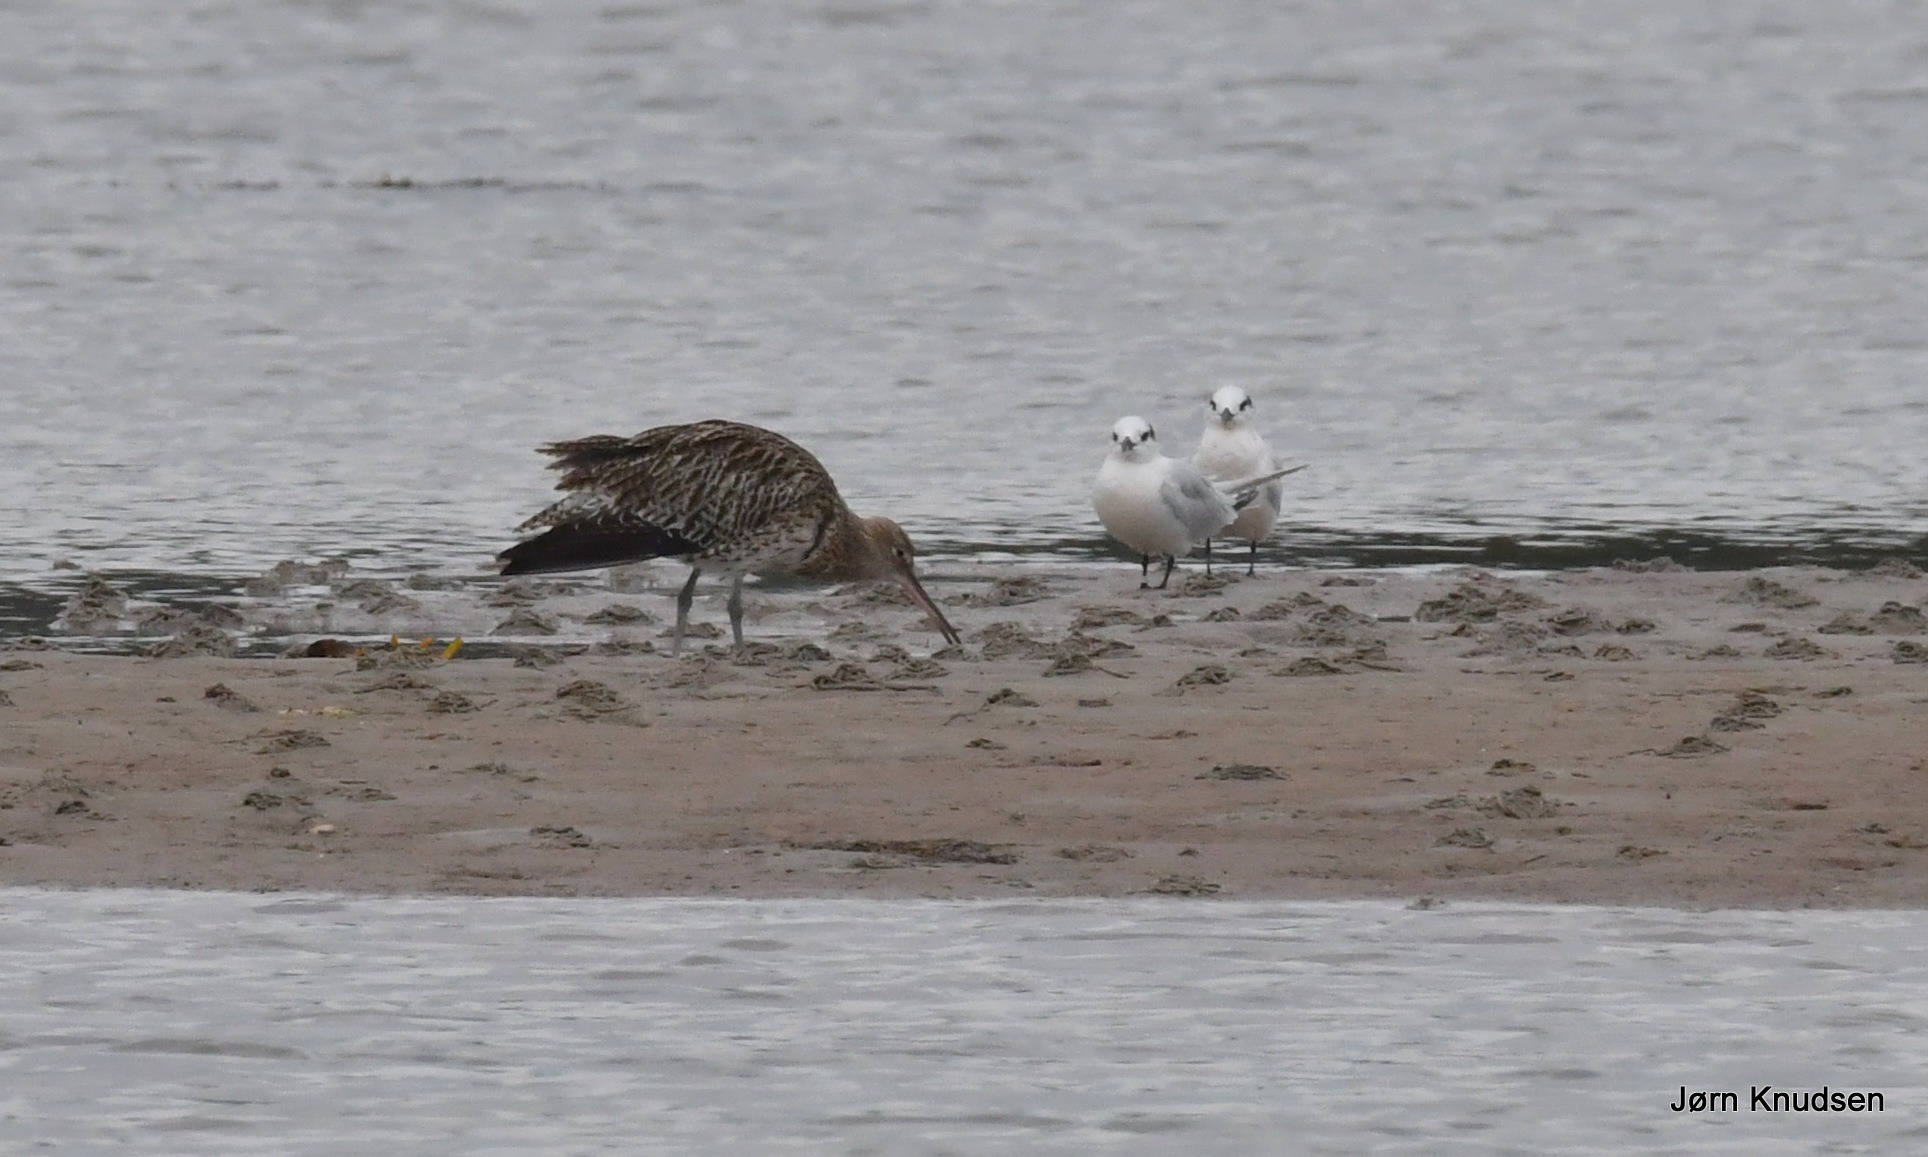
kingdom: Animalia
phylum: Chordata
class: Aves
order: Charadriiformes
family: Laridae
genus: Thalasseus
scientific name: Thalasseus sandvicensis
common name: Splitterne
